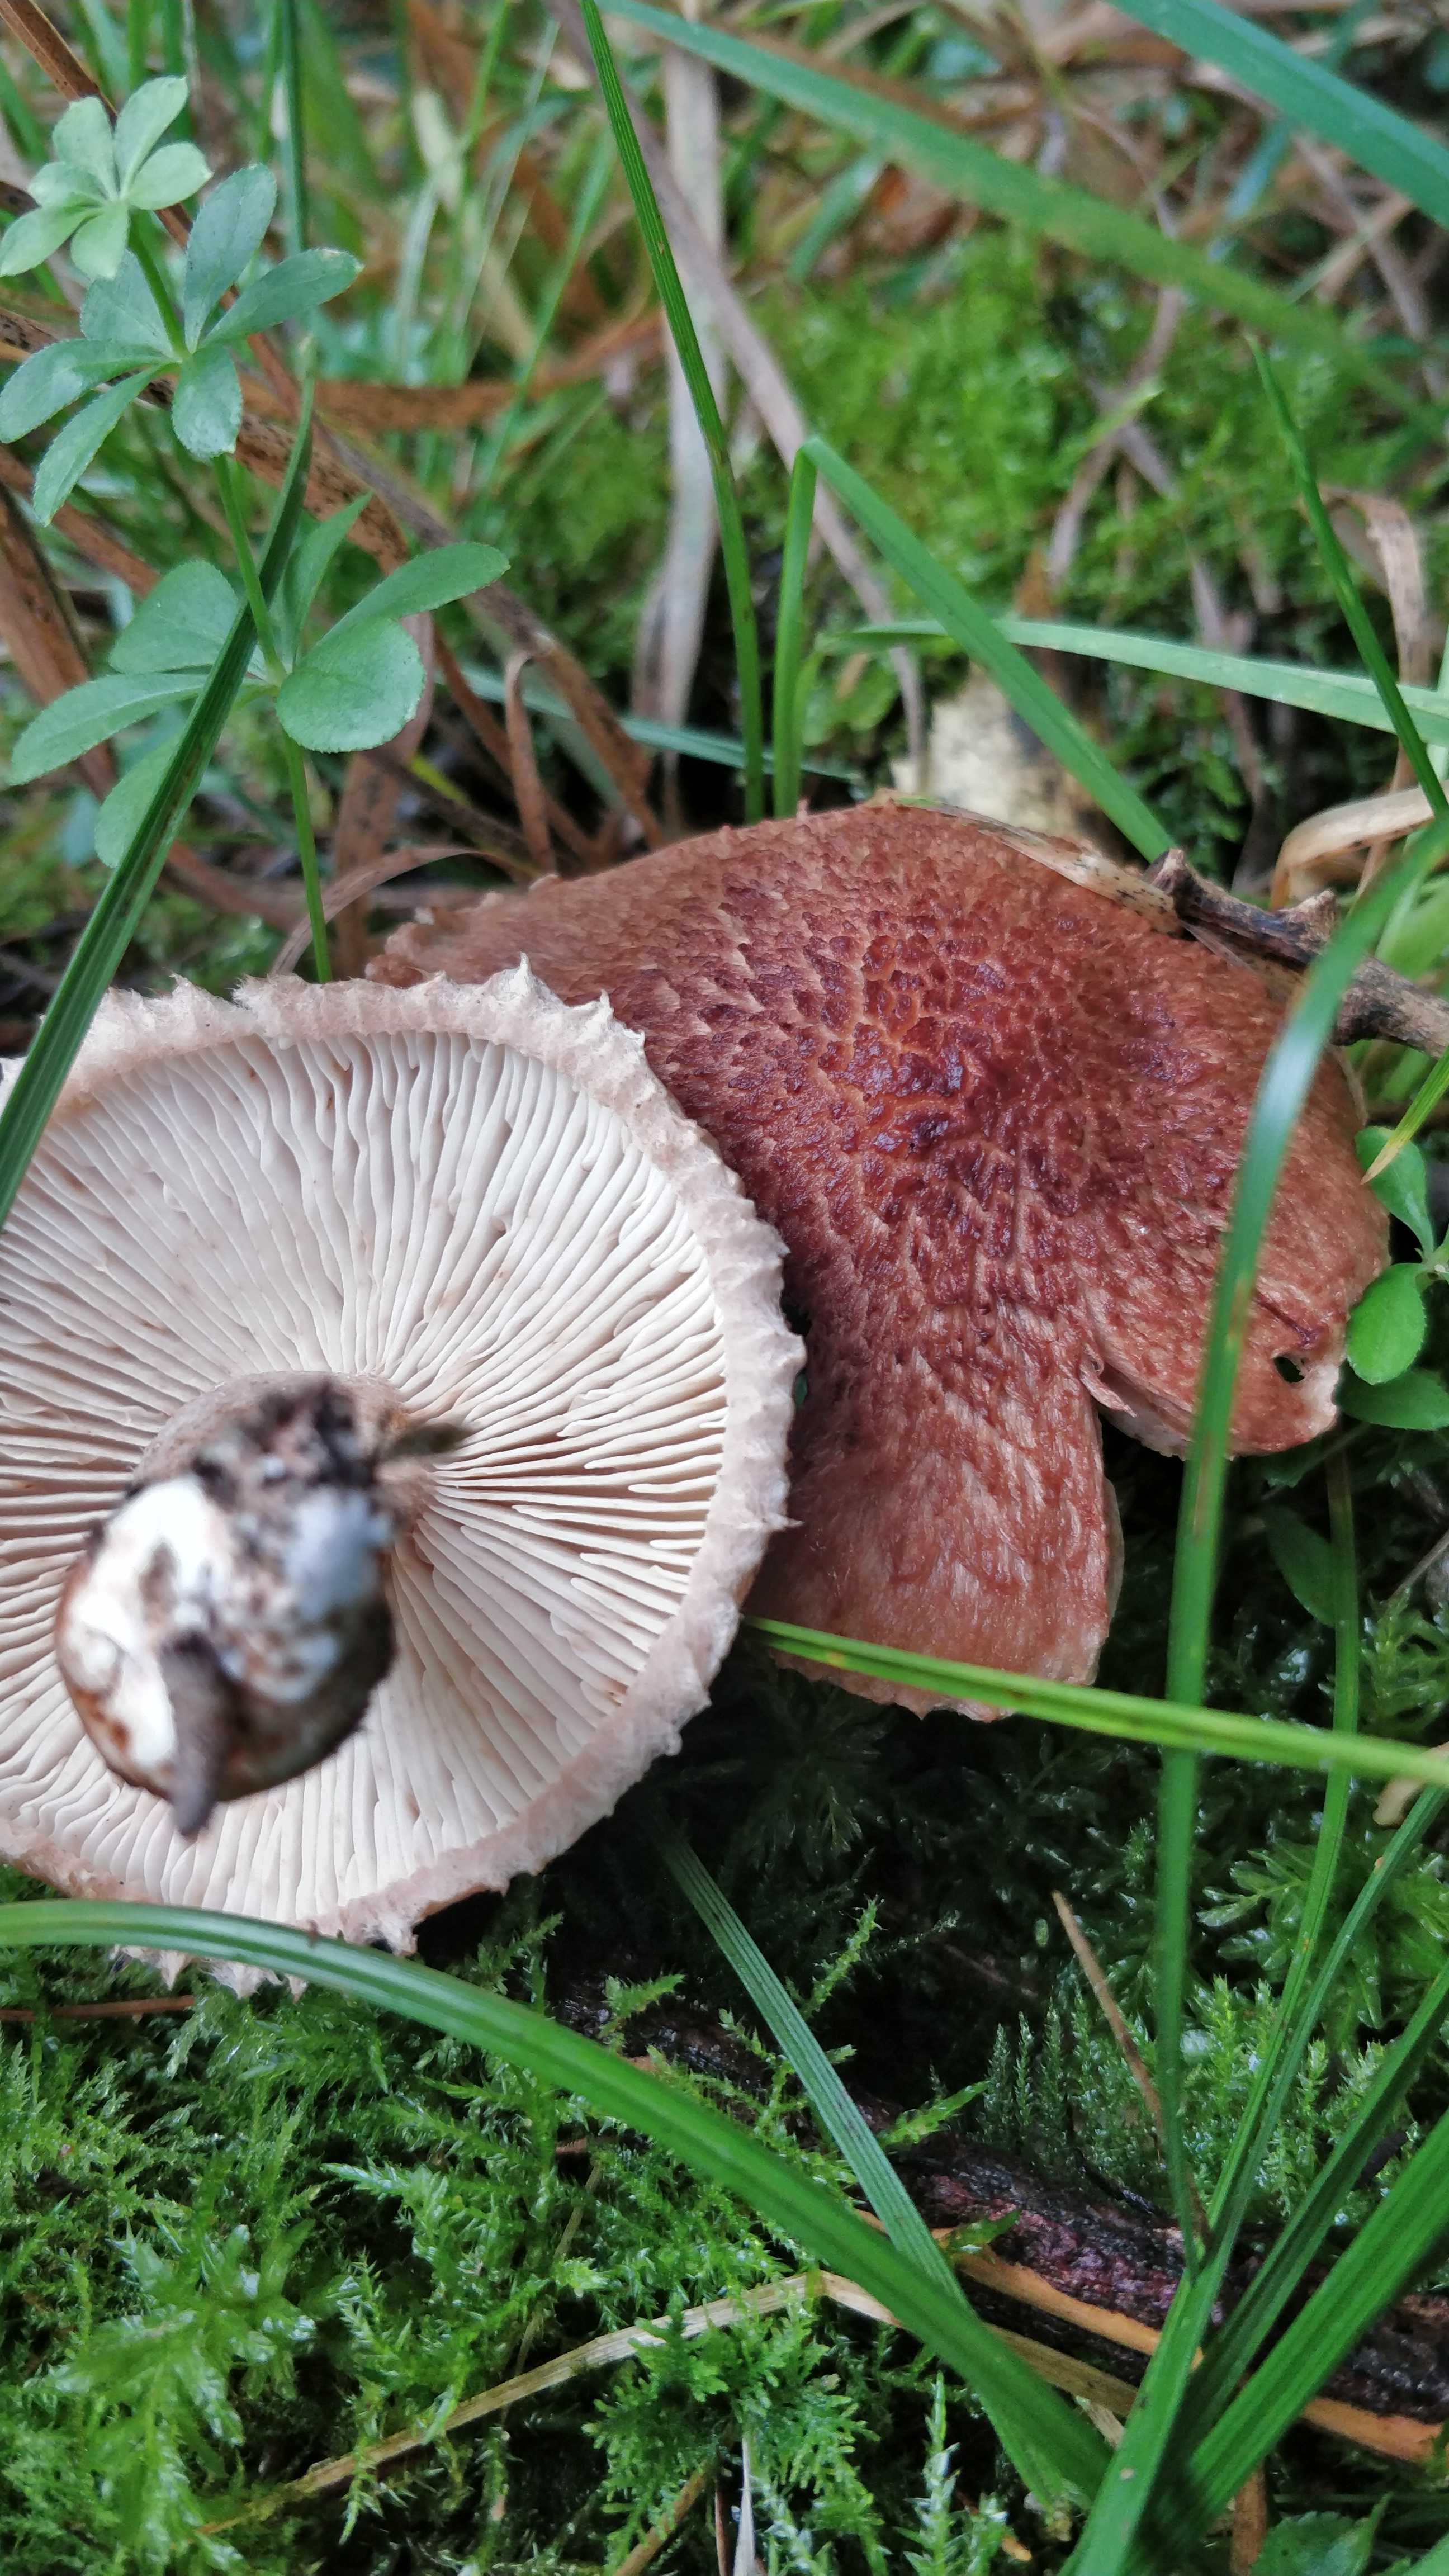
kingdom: Fungi
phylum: Basidiomycota
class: Agaricomycetes
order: Agaricales
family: Tricholomataceae
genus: Tricholoma
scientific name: Tricholoma vaccinum
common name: ko-ridderhat
